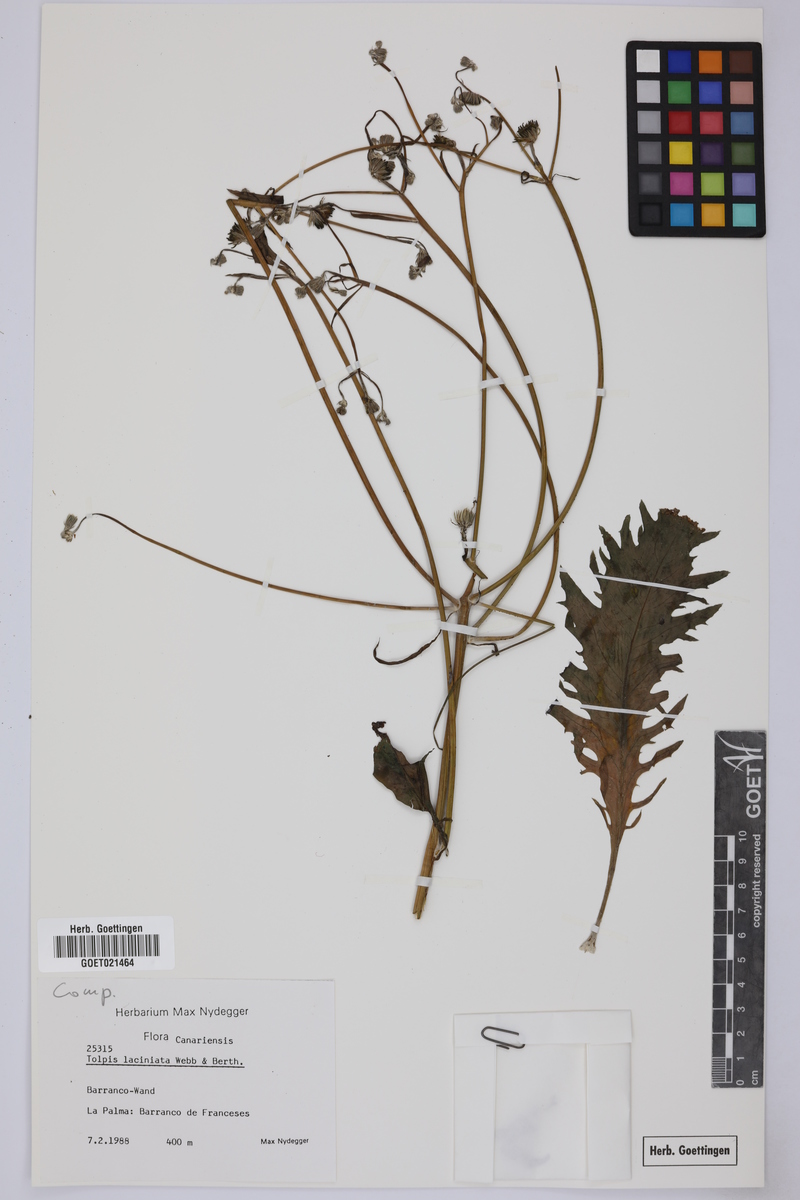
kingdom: Plantae
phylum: Tracheophyta
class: Magnoliopsida
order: Asterales
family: Asteraceae
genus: Tolpis
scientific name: Tolpis laciniata
